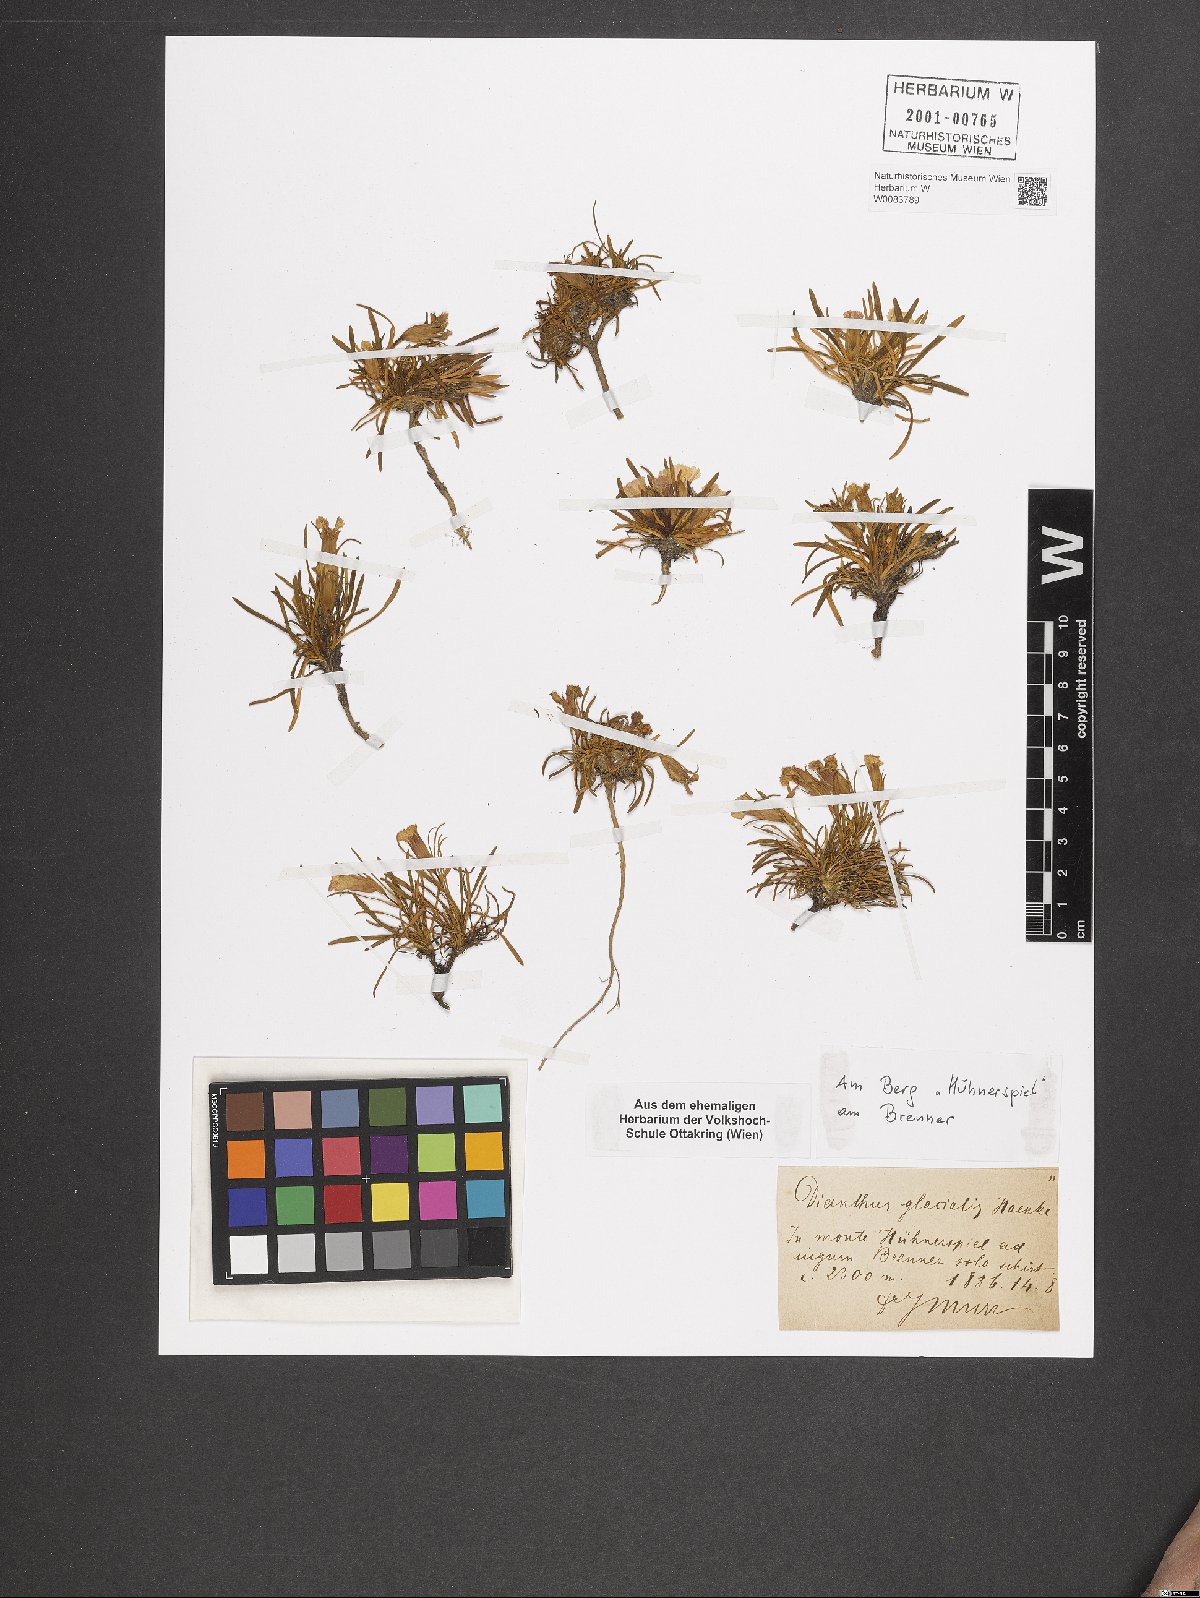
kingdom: Plantae
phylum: Tracheophyta
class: Magnoliopsida
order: Caryophyllales
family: Caryophyllaceae
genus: Dianthus
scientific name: Dianthus glacialis
